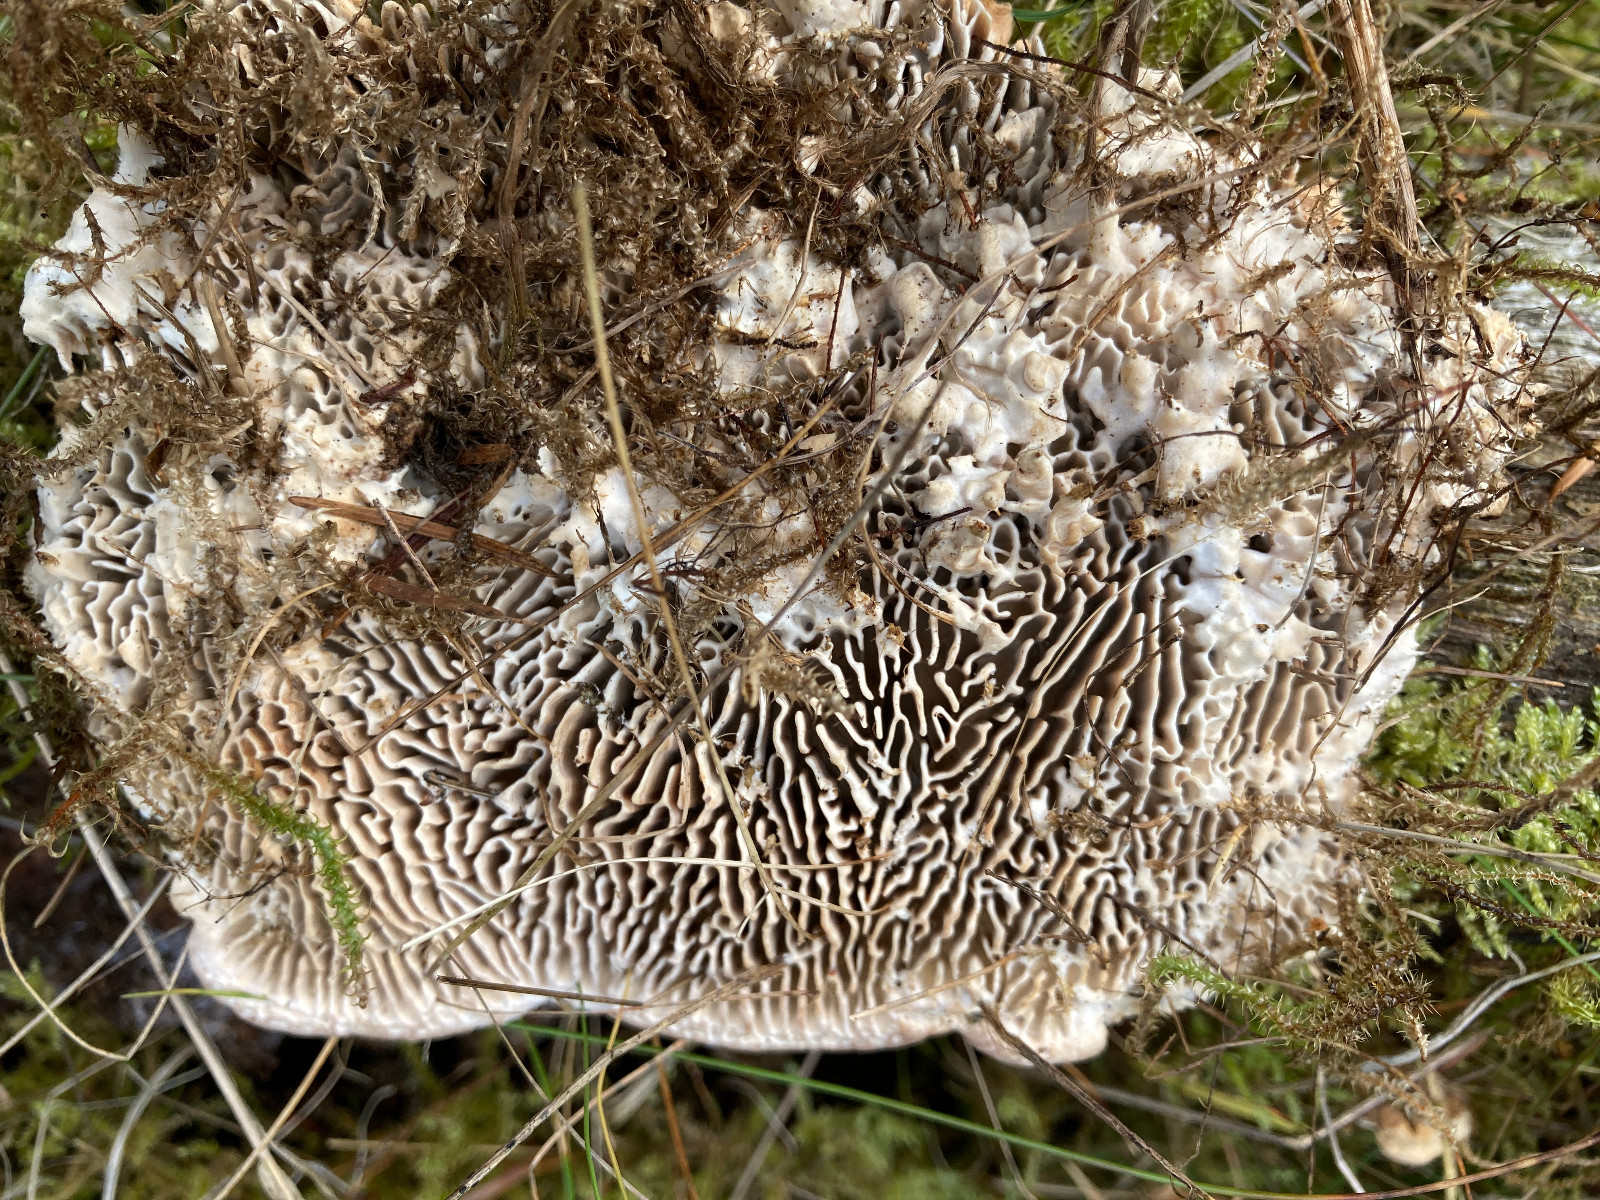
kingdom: Fungi
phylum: Basidiomycota
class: Agaricomycetes
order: Polyporales
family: Fomitopsidaceae
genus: Daedalea
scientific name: Daedalea quercina
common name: ege-labyrintsvamp
